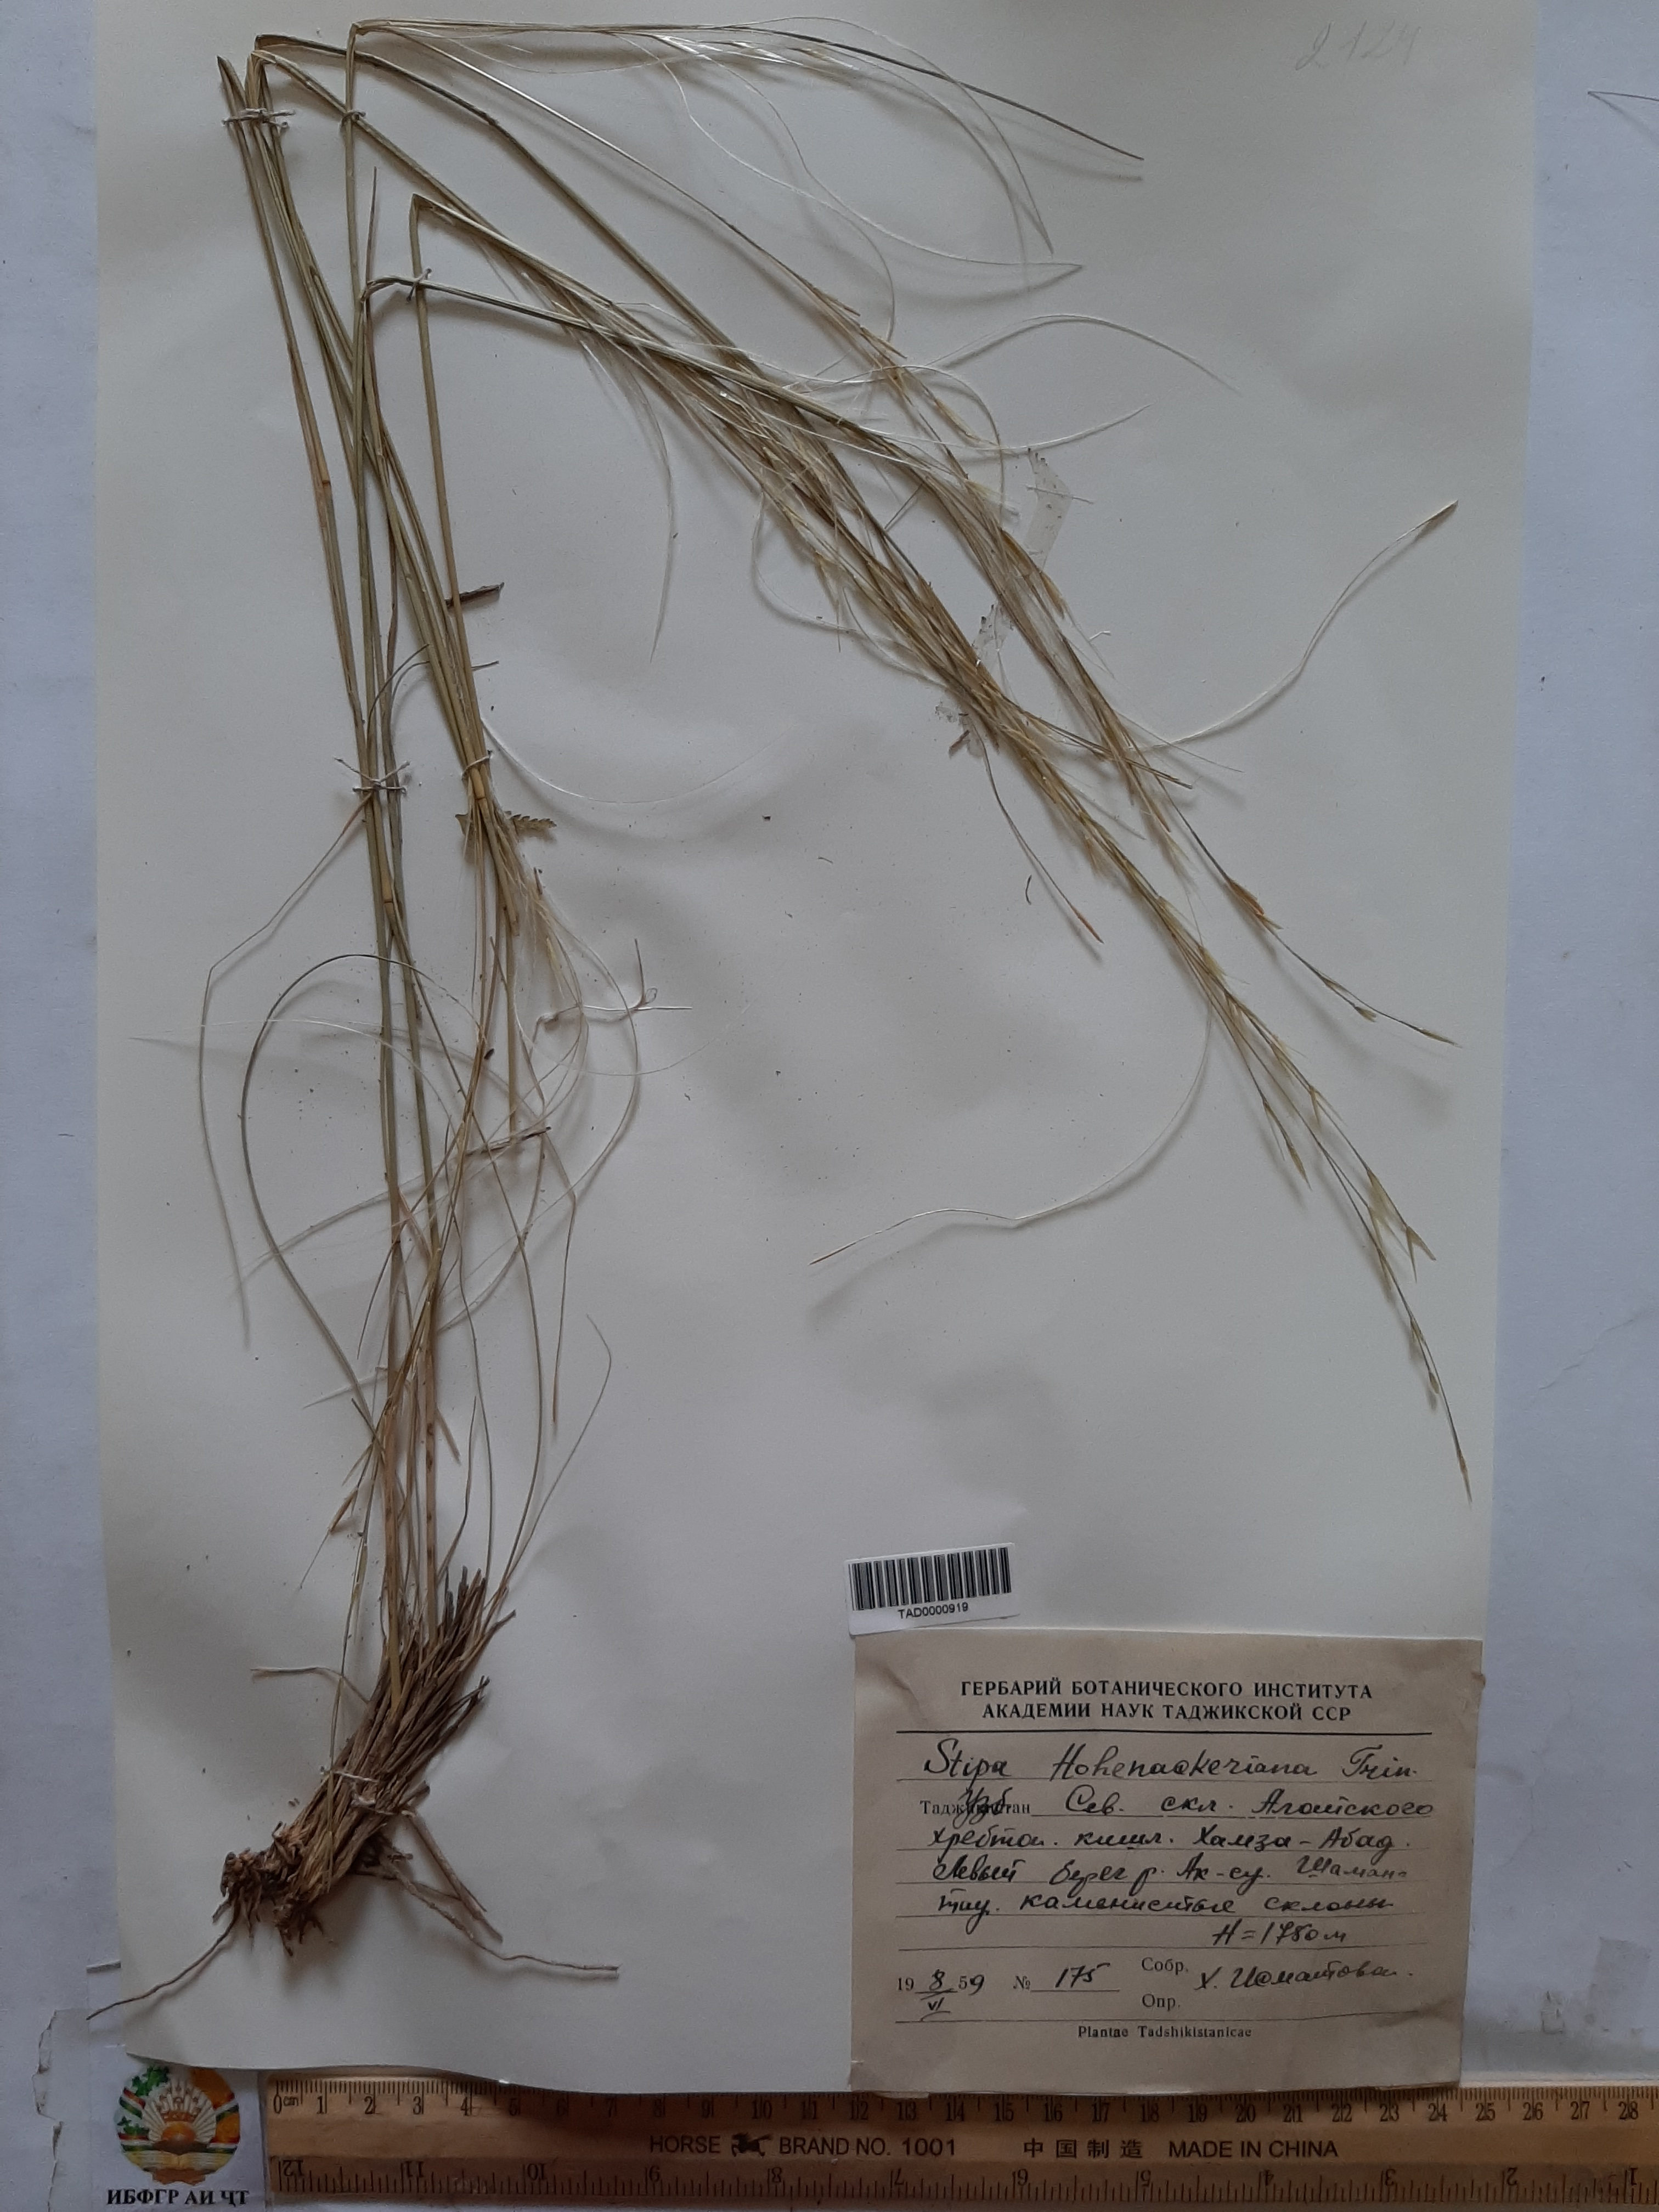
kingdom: Plantae
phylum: Tracheophyta
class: Liliopsida
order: Poales
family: Poaceae
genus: Stipa
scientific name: Stipa hohenackeriana
